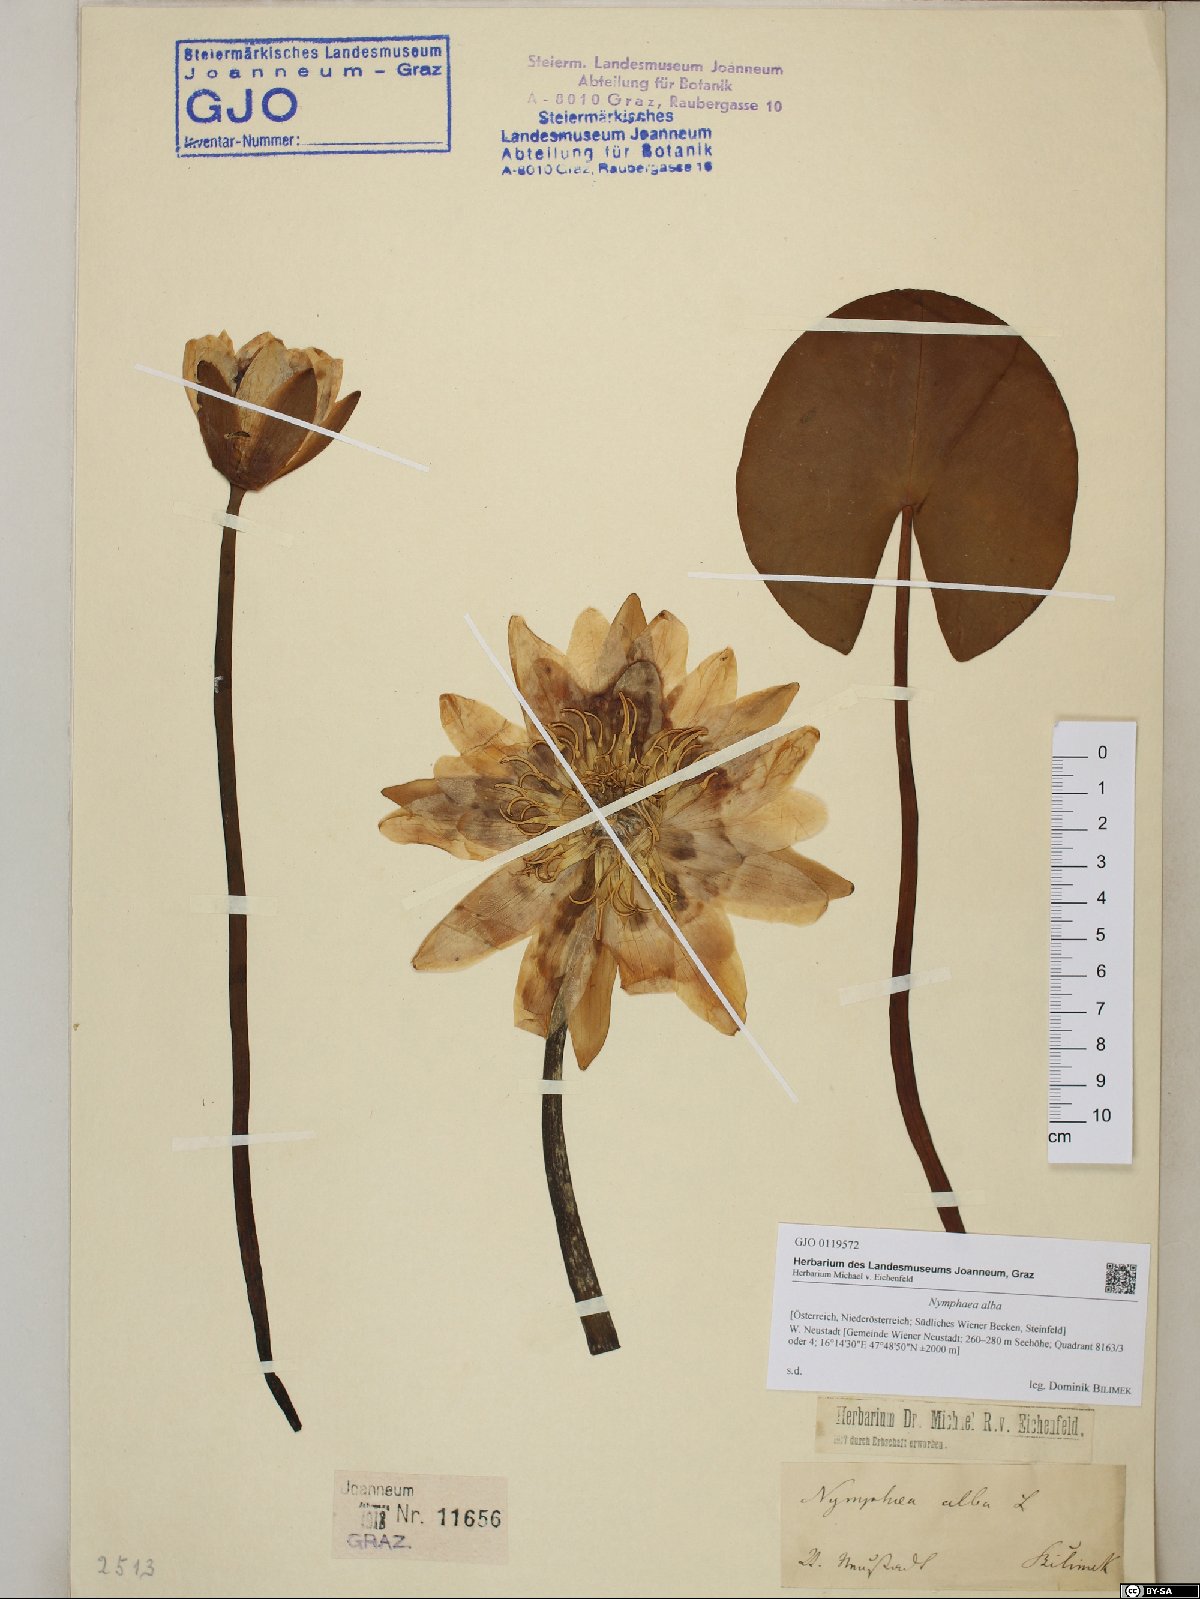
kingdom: Plantae
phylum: Tracheophyta
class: Magnoliopsida
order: Nymphaeales
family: Nymphaeaceae
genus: Nymphaea
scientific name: Nymphaea alba
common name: White water-lily
